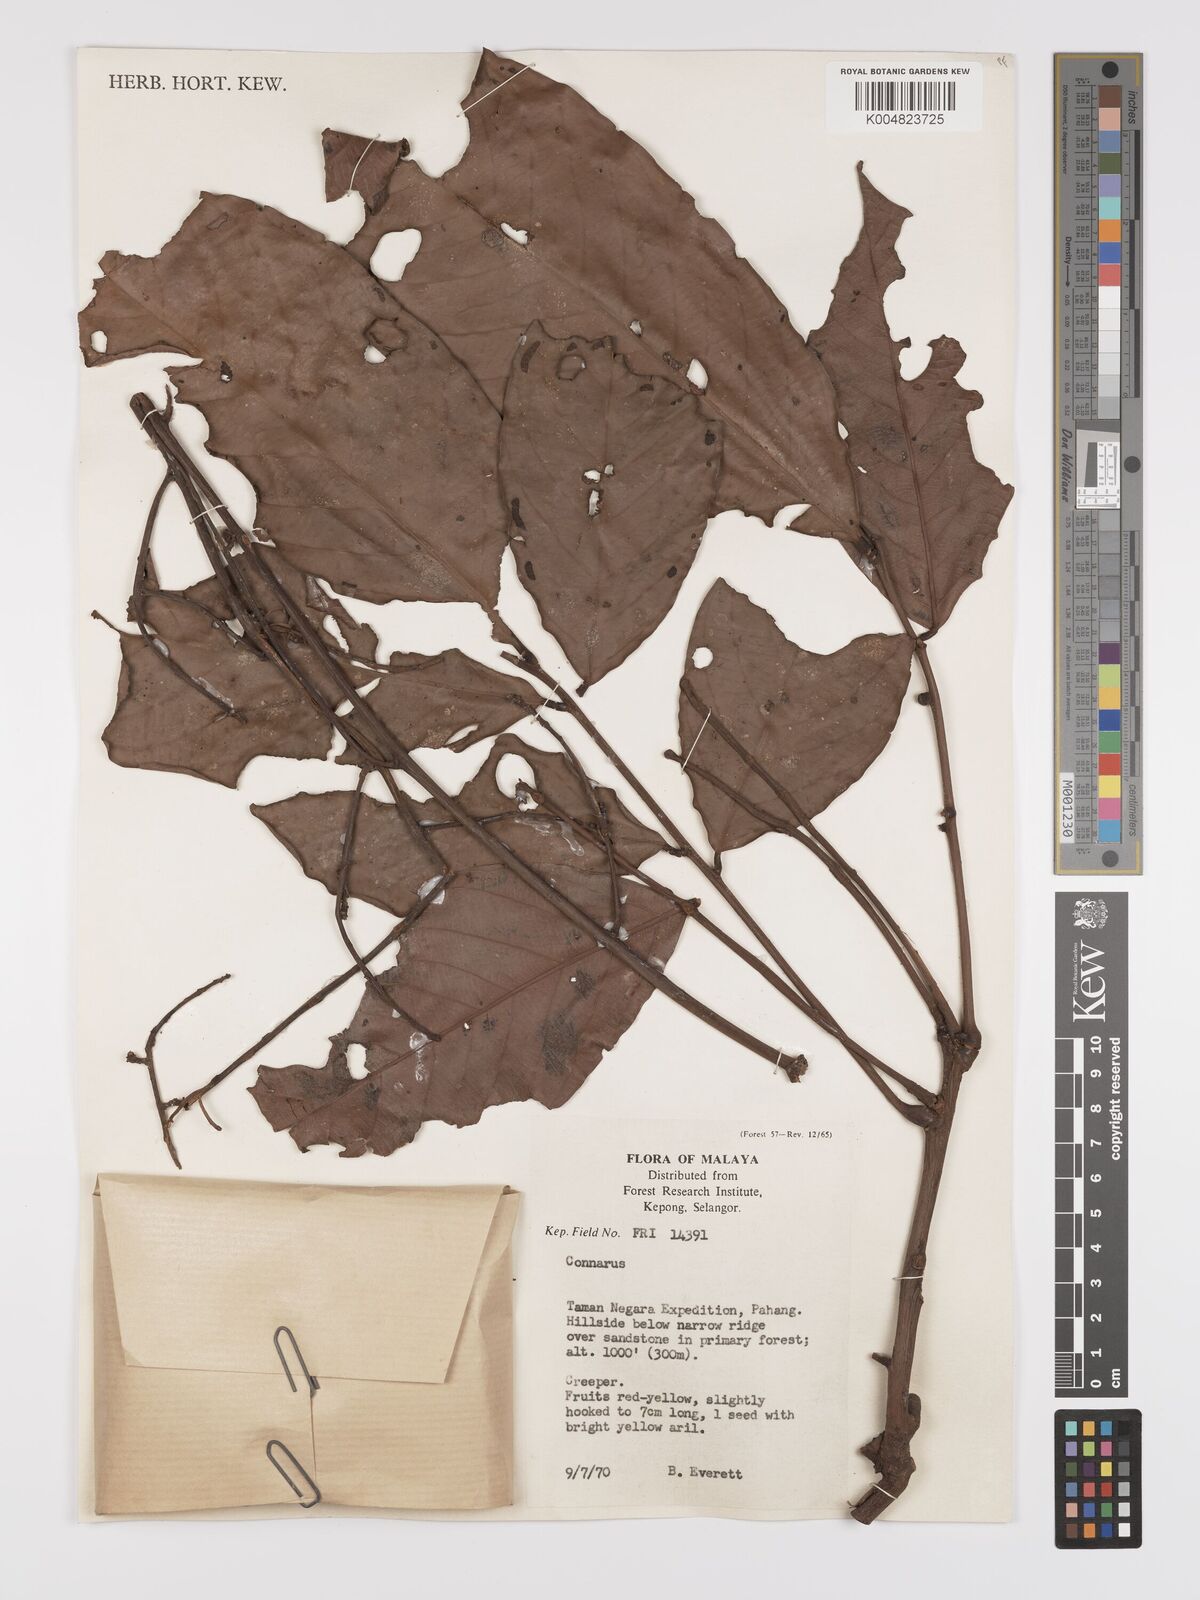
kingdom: Plantae
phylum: Tracheophyta
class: Magnoliopsida
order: Oxalidales
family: Connaraceae
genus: Connarus
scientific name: Connarus
